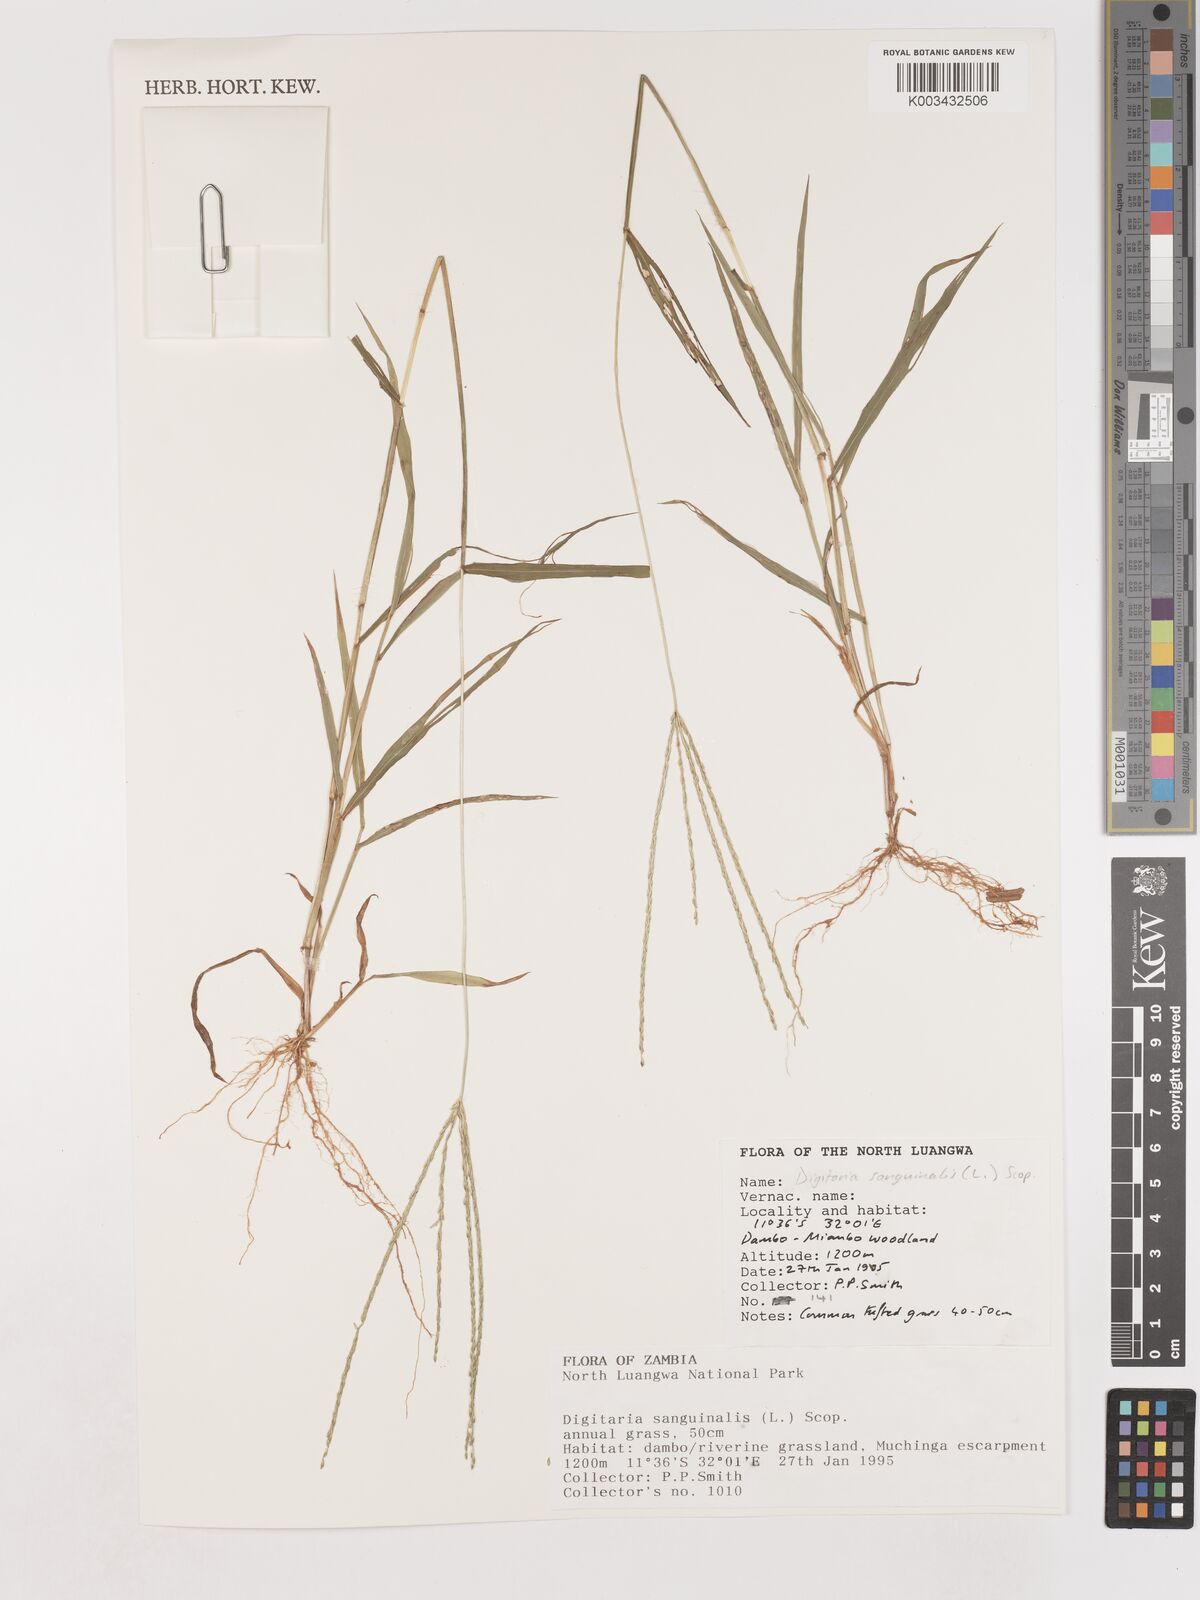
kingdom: Plantae
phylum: Tracheophyta
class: Liliopsida
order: Poales
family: Poaceae
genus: Digitaria
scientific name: Digitaria sanguinalis
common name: Hairy crabgrass
